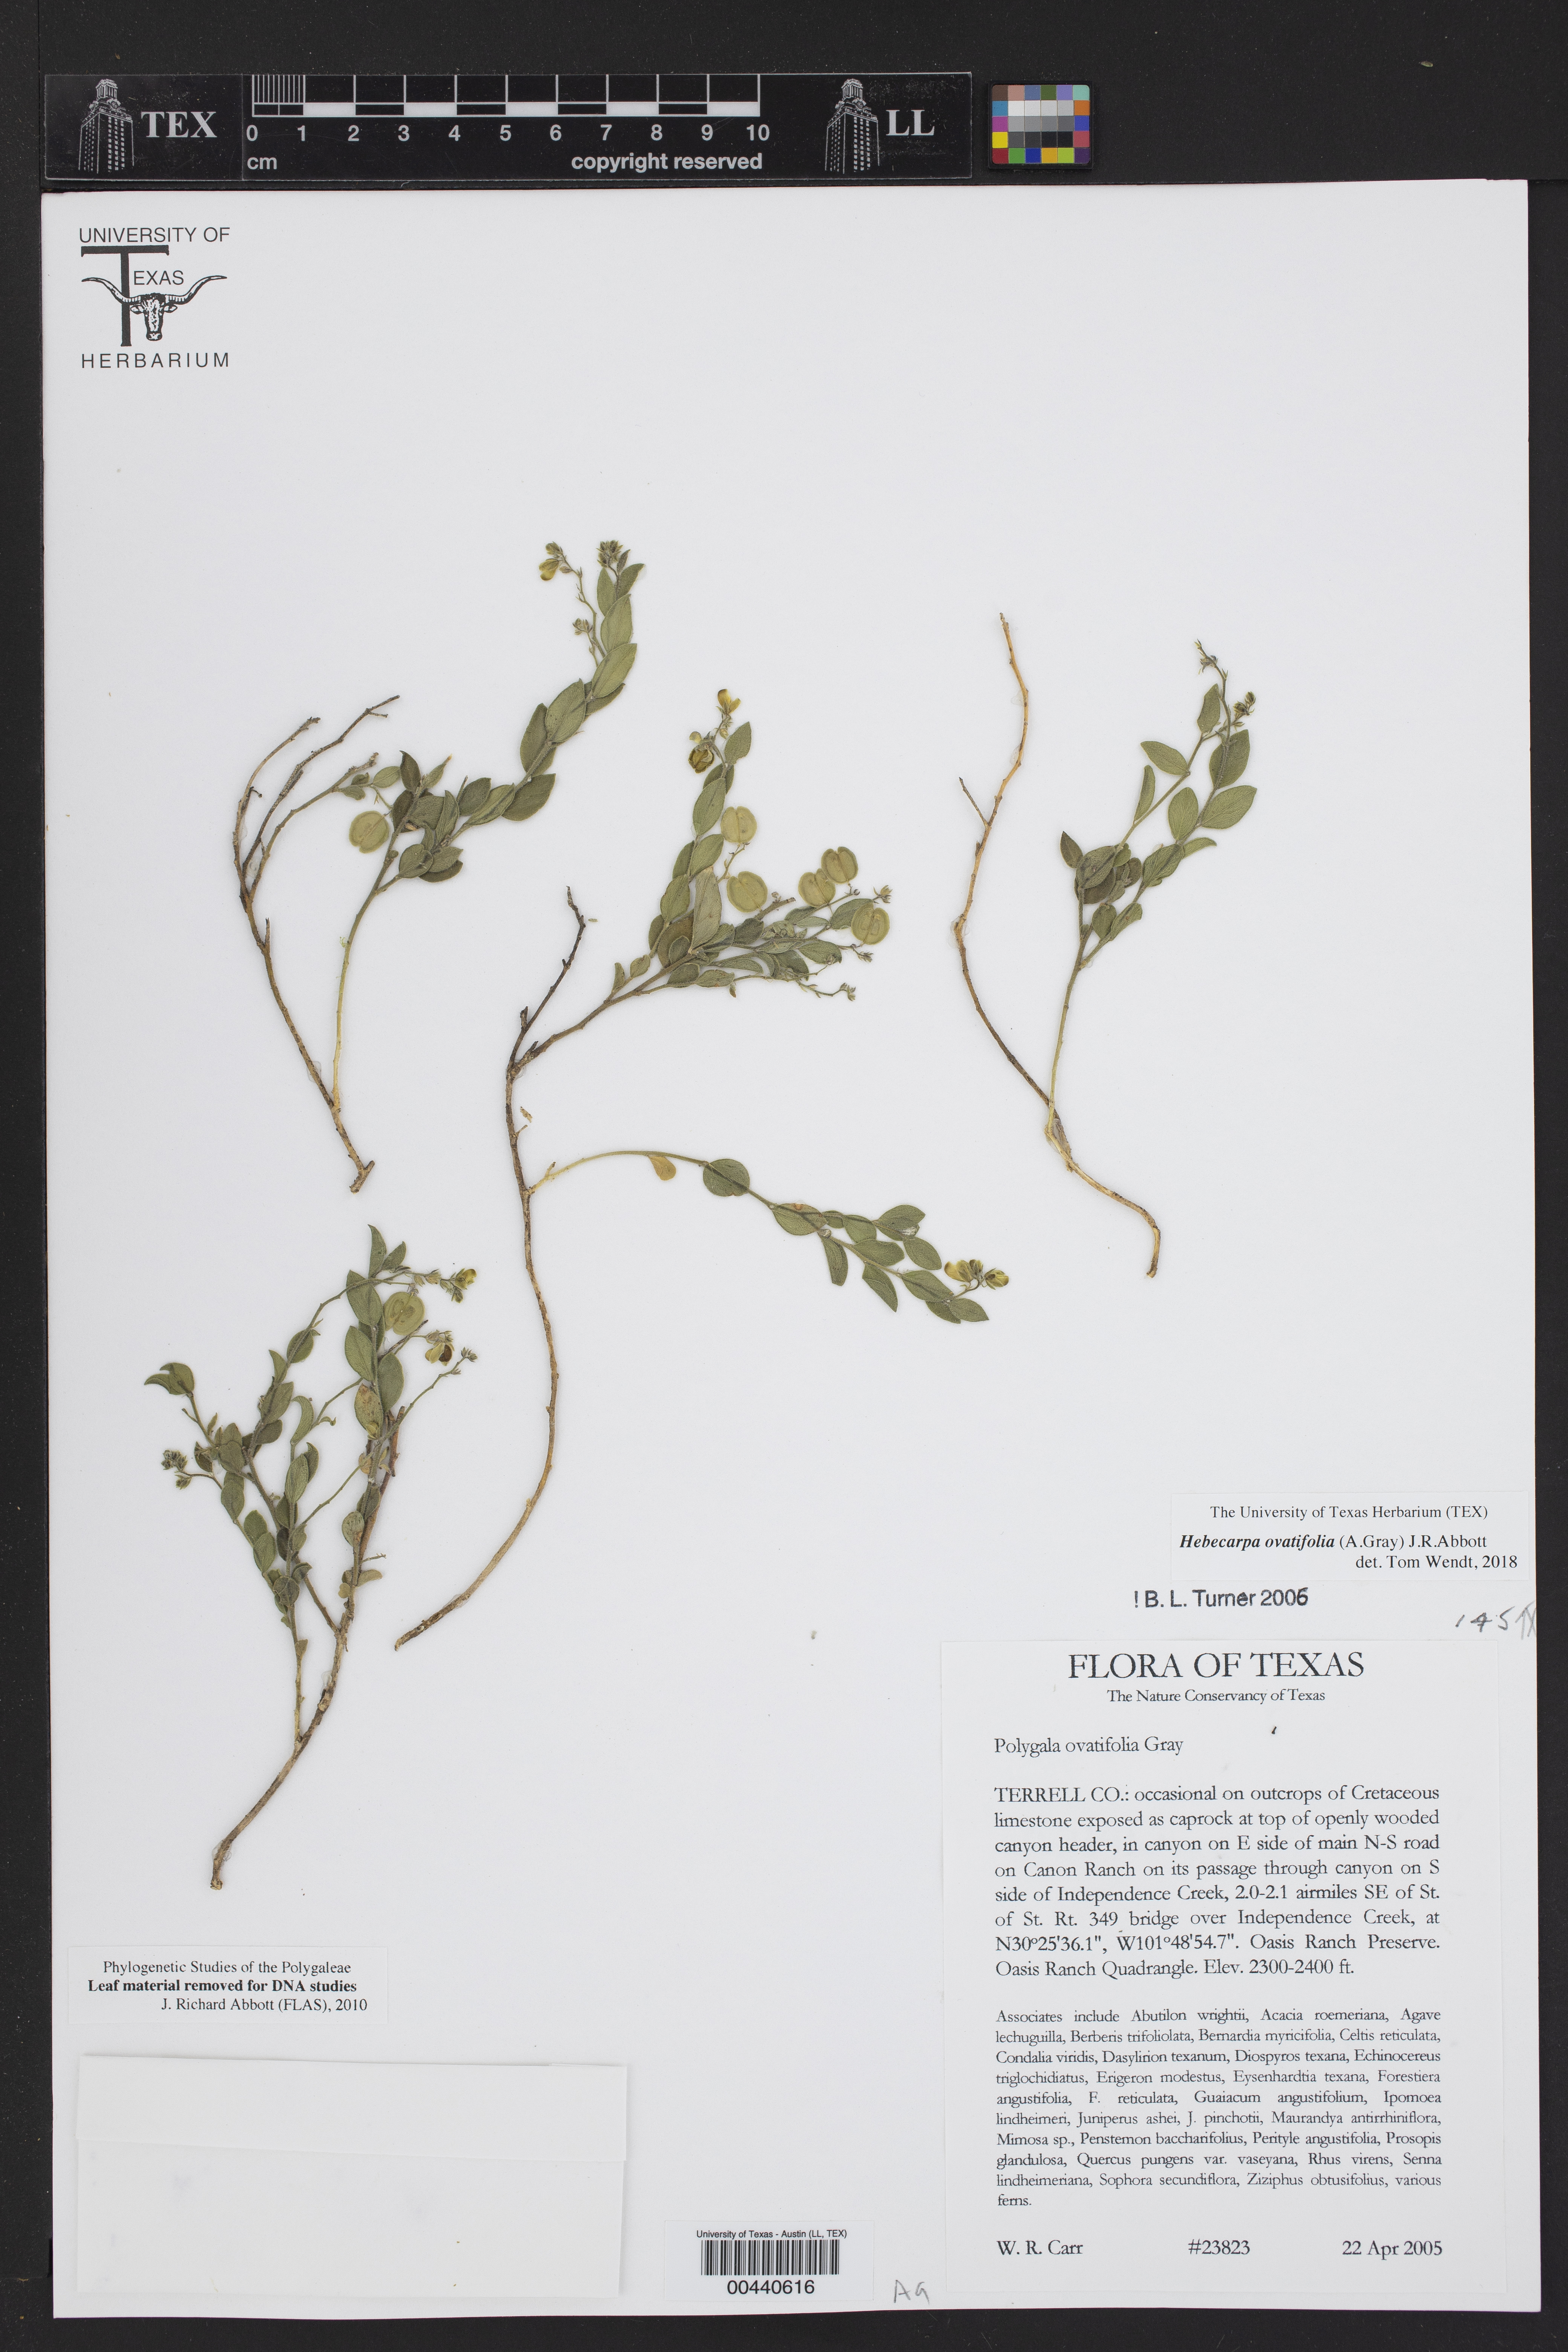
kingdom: Plantae
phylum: Tracheophyta
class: Magnoliopsida
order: Fabales
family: Polygalaceae
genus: Hebecarpa
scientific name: Hebecarpa ovatifolia
